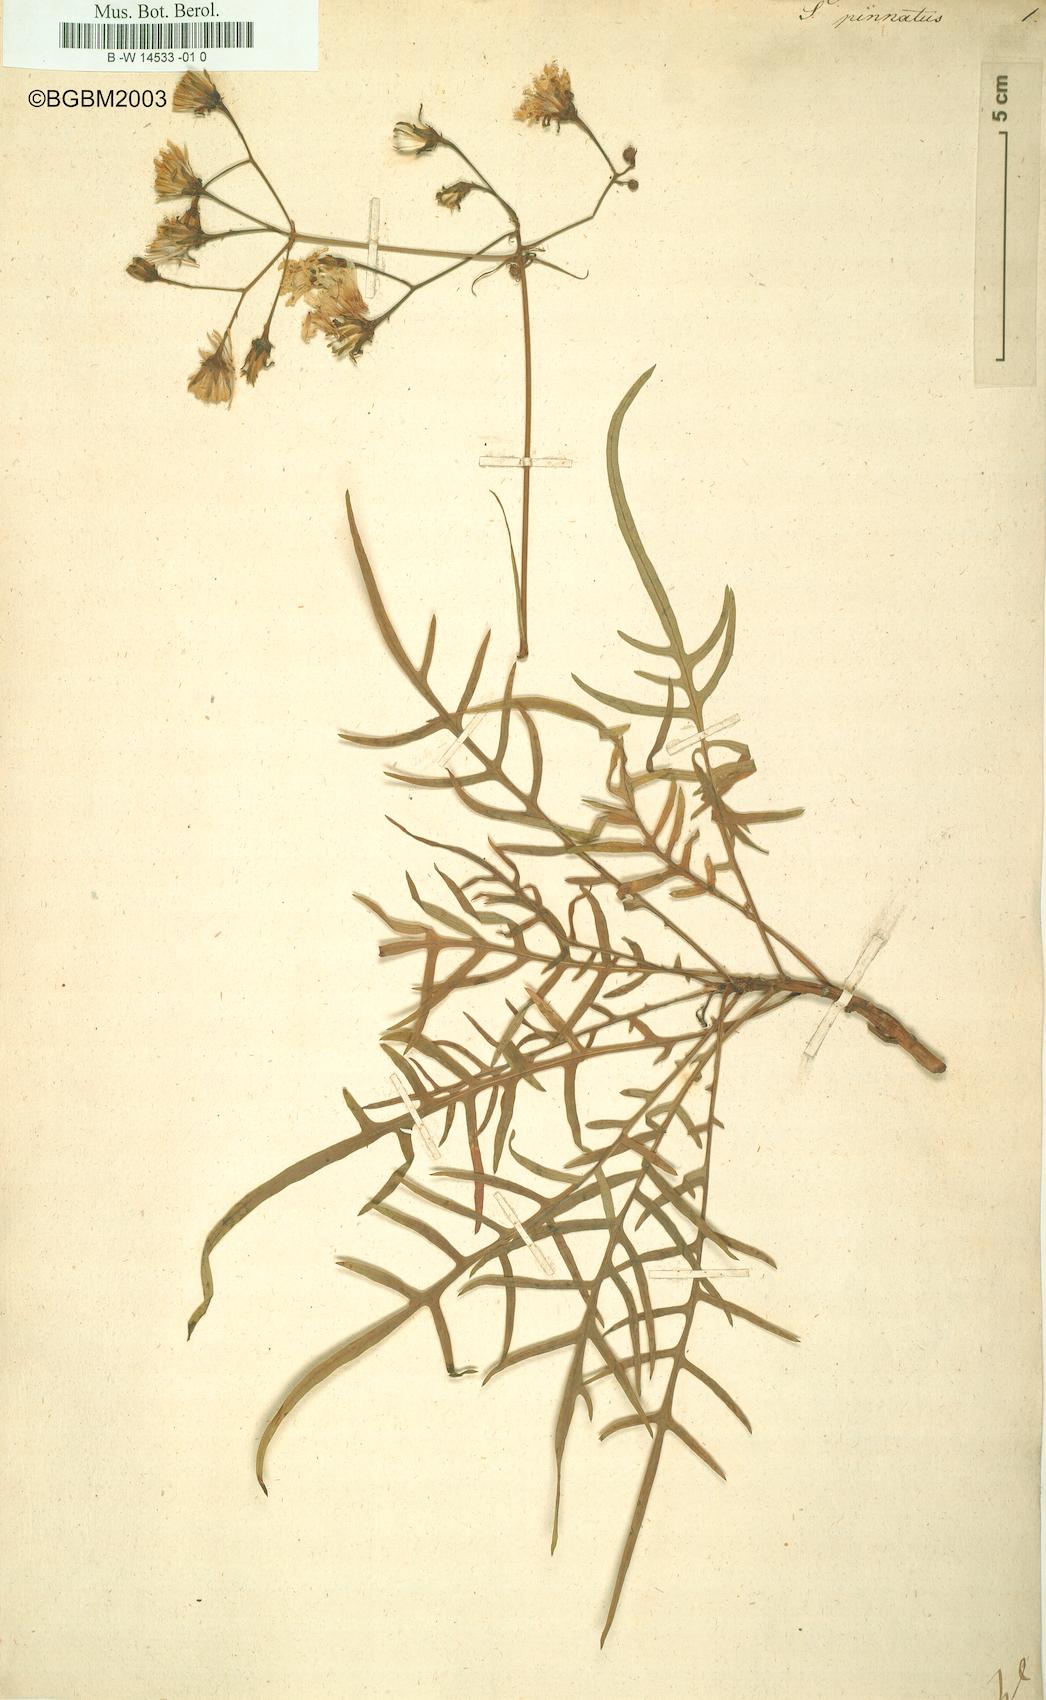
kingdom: Plantae
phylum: Tracheophyta
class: Magnoliopsida
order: Asterales
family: Asteraceae
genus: Sonchus
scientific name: Sonchus pinnatus
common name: Wing-leaved sow-thistle
